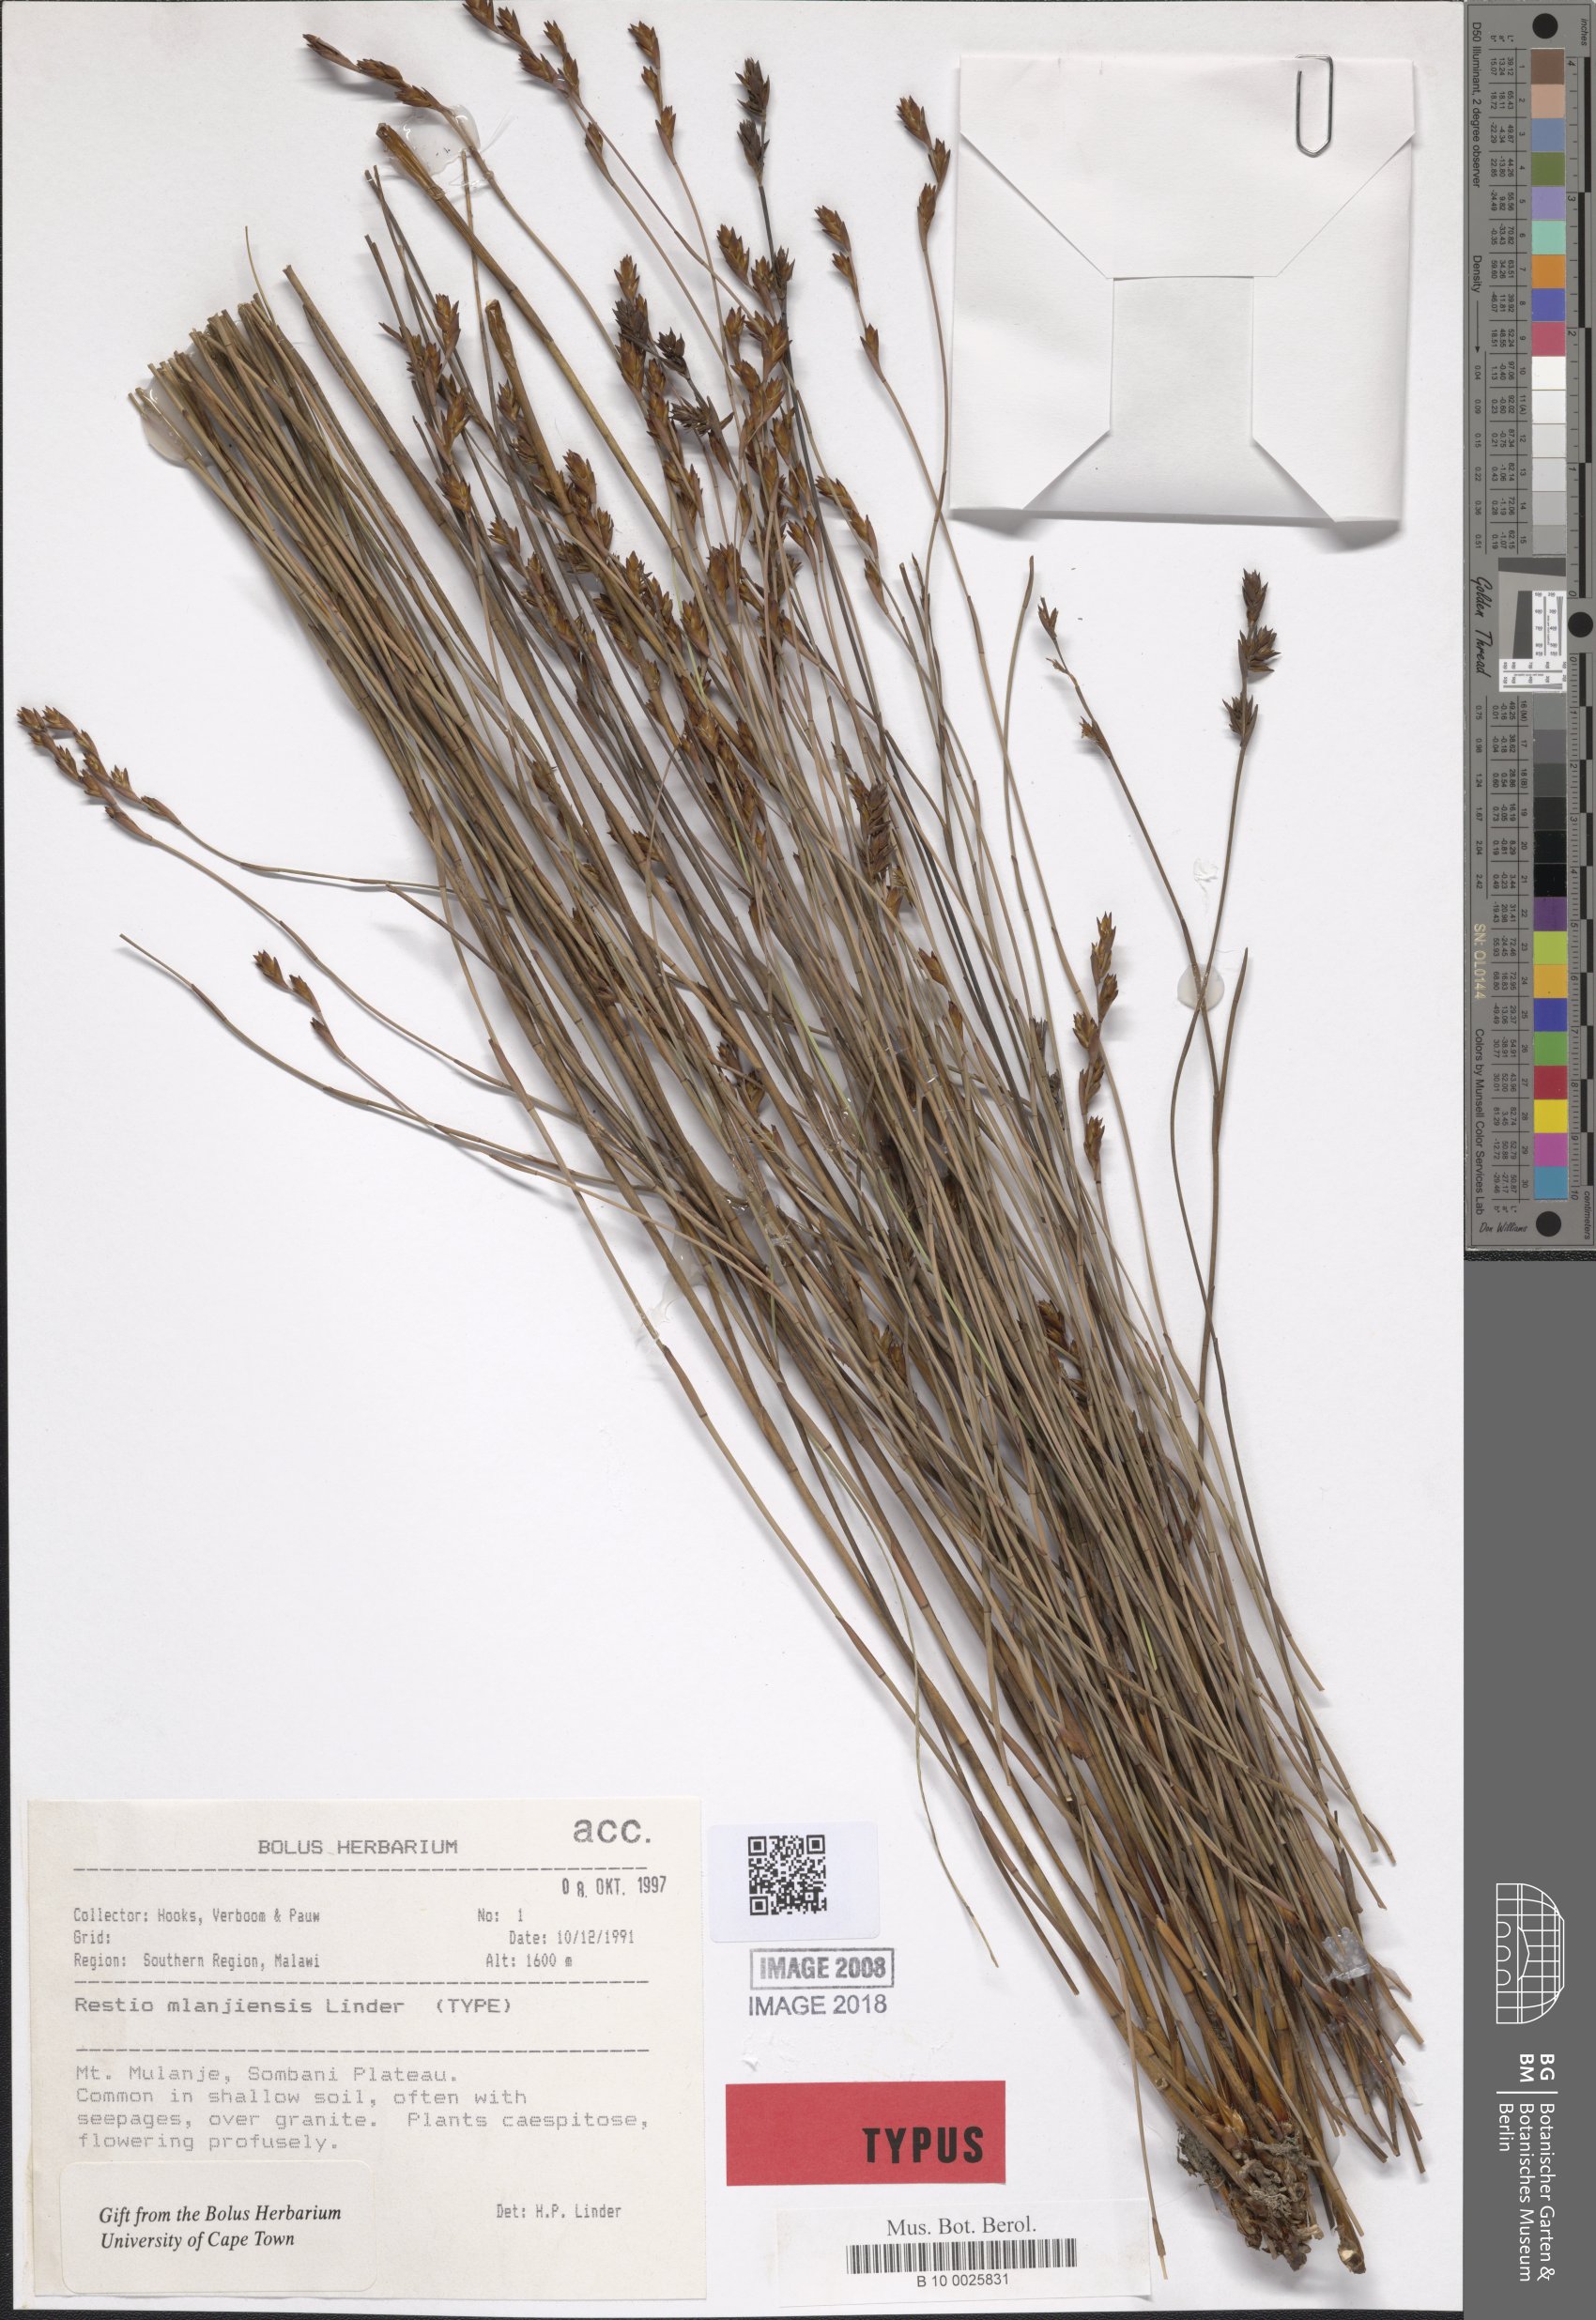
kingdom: Plantae
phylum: Tracheophyta
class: Liliopsida
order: Poales
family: Restionaceae
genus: Platycaulos
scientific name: Platycaulos mlanjiensis
